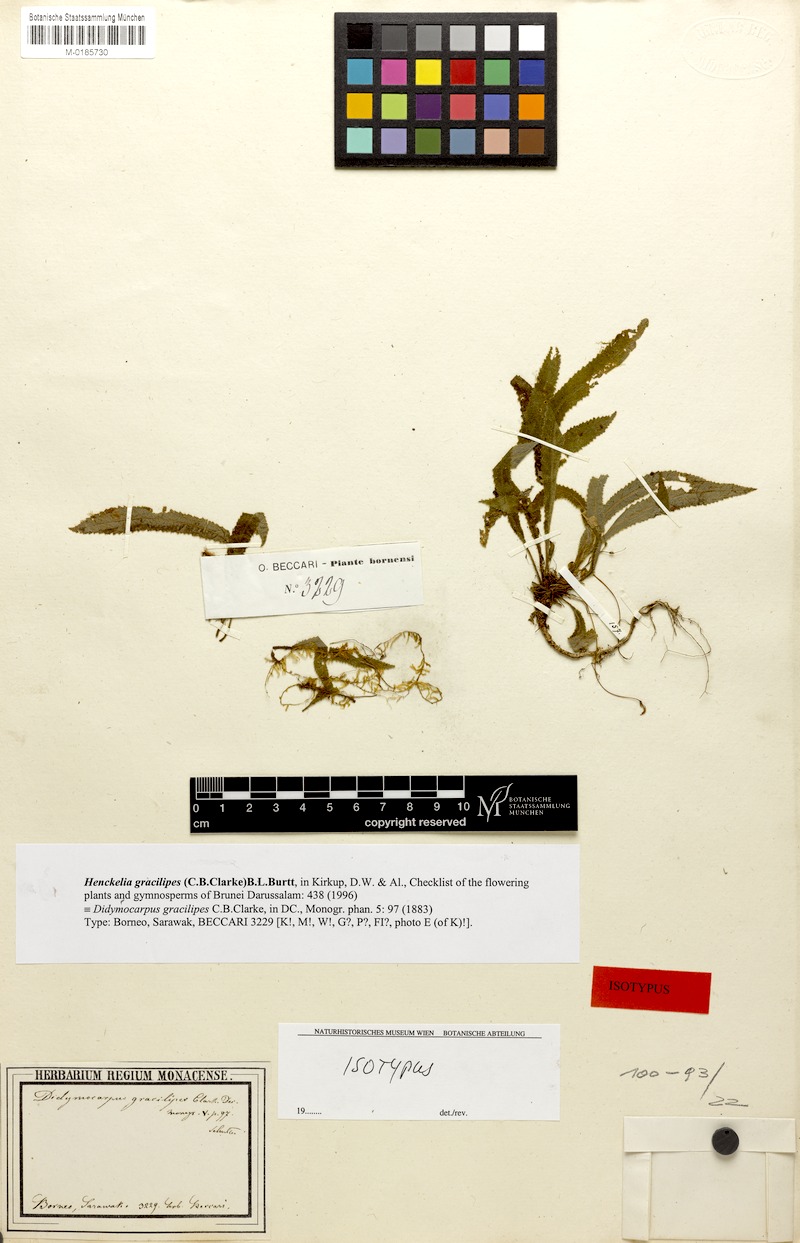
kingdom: Plantae
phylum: Tracheophyta
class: Magnoliopsida
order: Lamiales
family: Gesneriaceae
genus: Codonoboea
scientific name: Codonoboea gracilipes
